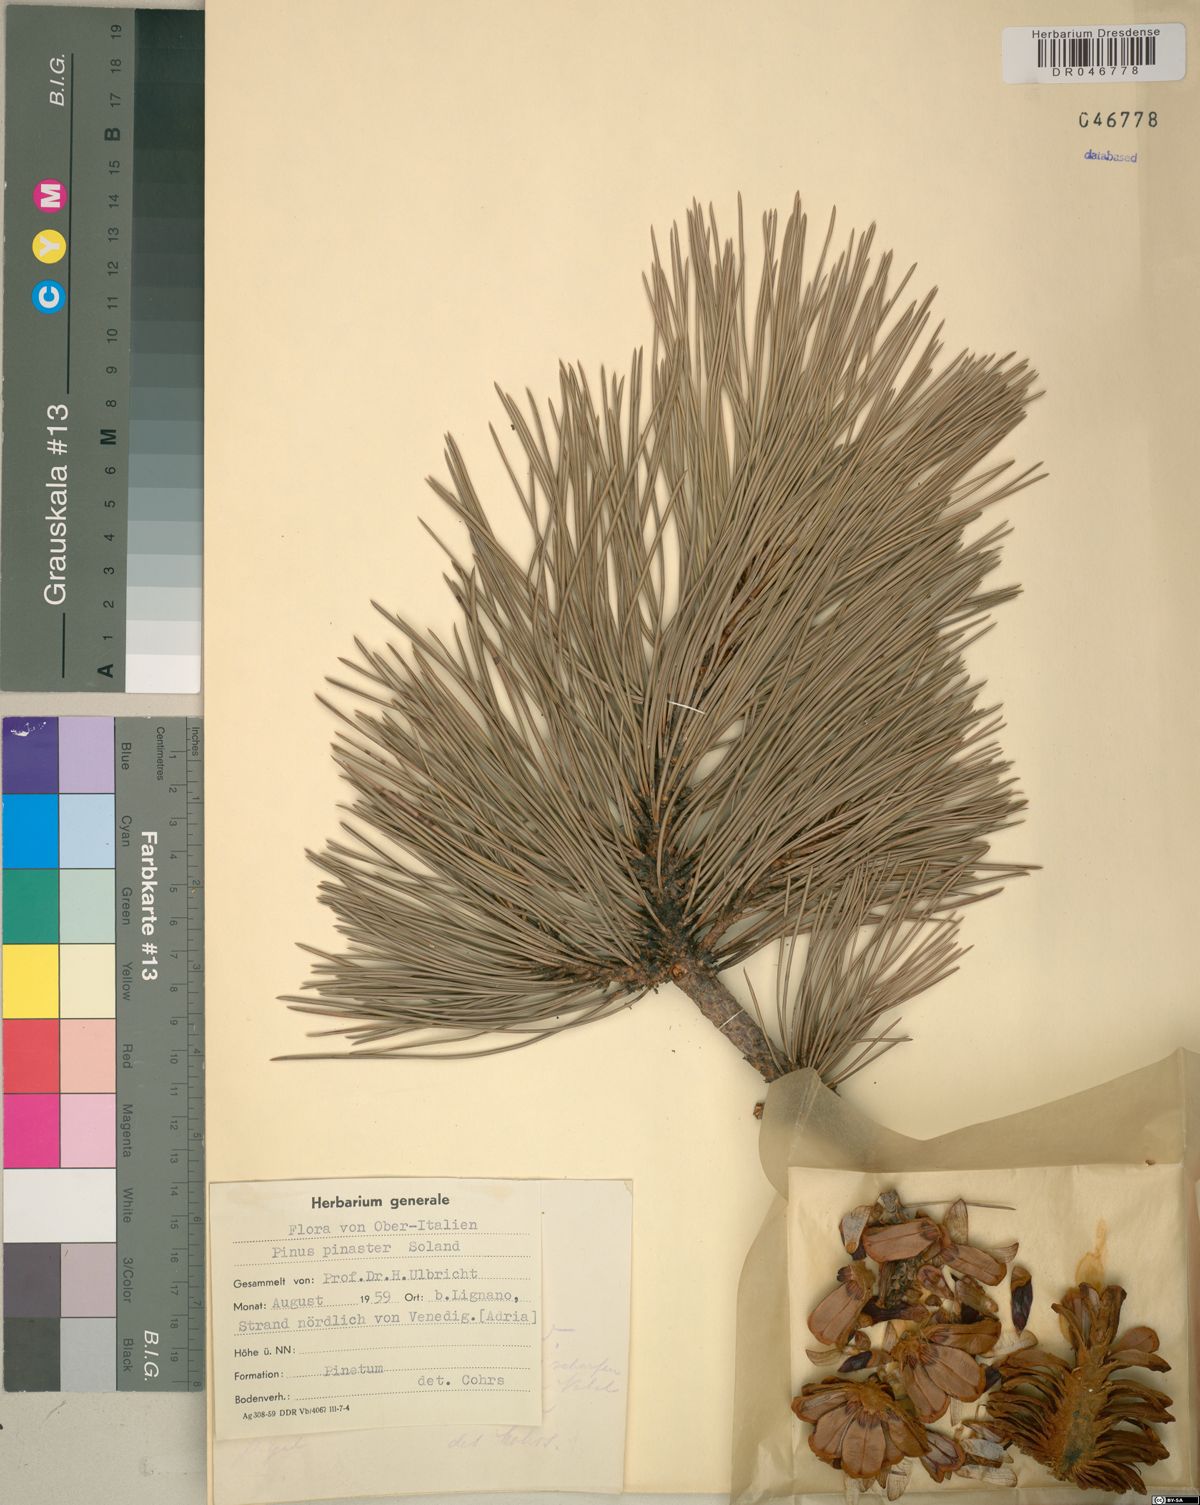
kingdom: Plantae
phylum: Tracheophyta
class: Pinopsida
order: Pinales
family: Pinaceae
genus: Pinus
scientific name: Pinus pinaster
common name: Maritime pine
